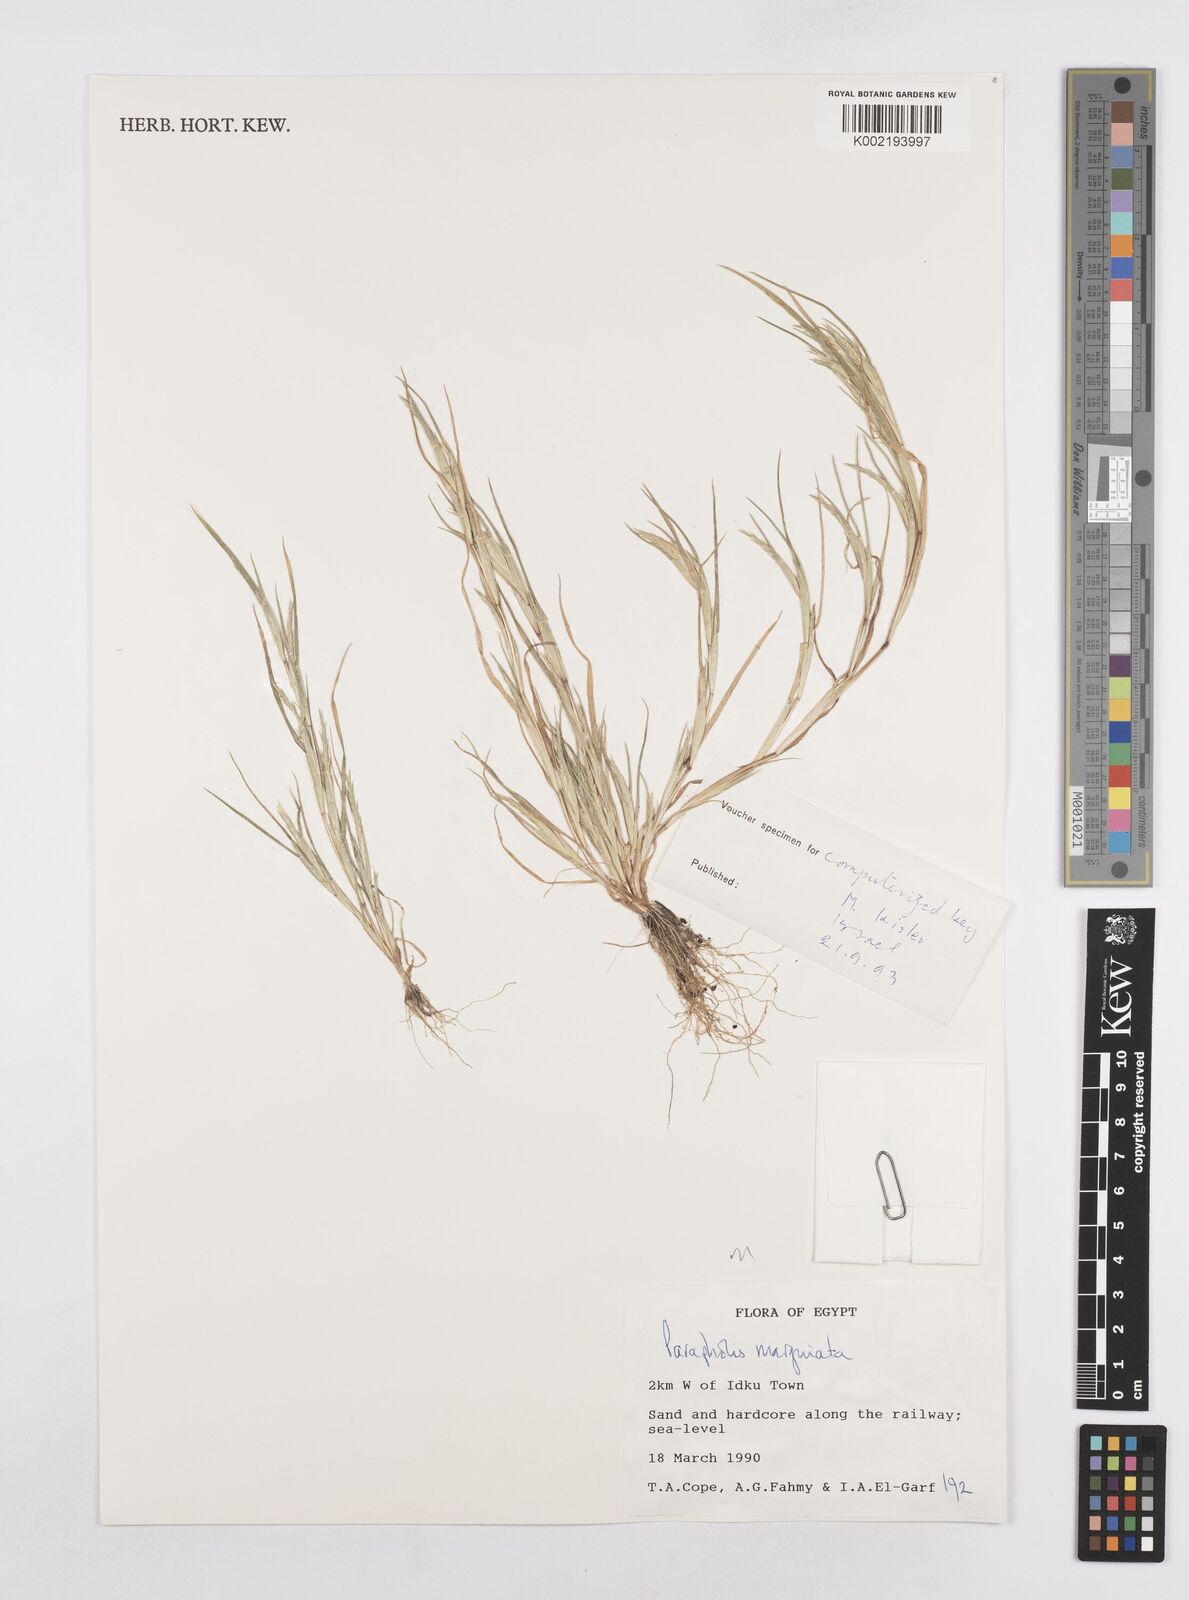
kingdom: Plantae
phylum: Tracheophyta
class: Liliopsida
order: Poales
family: Poaceae
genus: Parapholis
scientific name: Parapholis marginata
